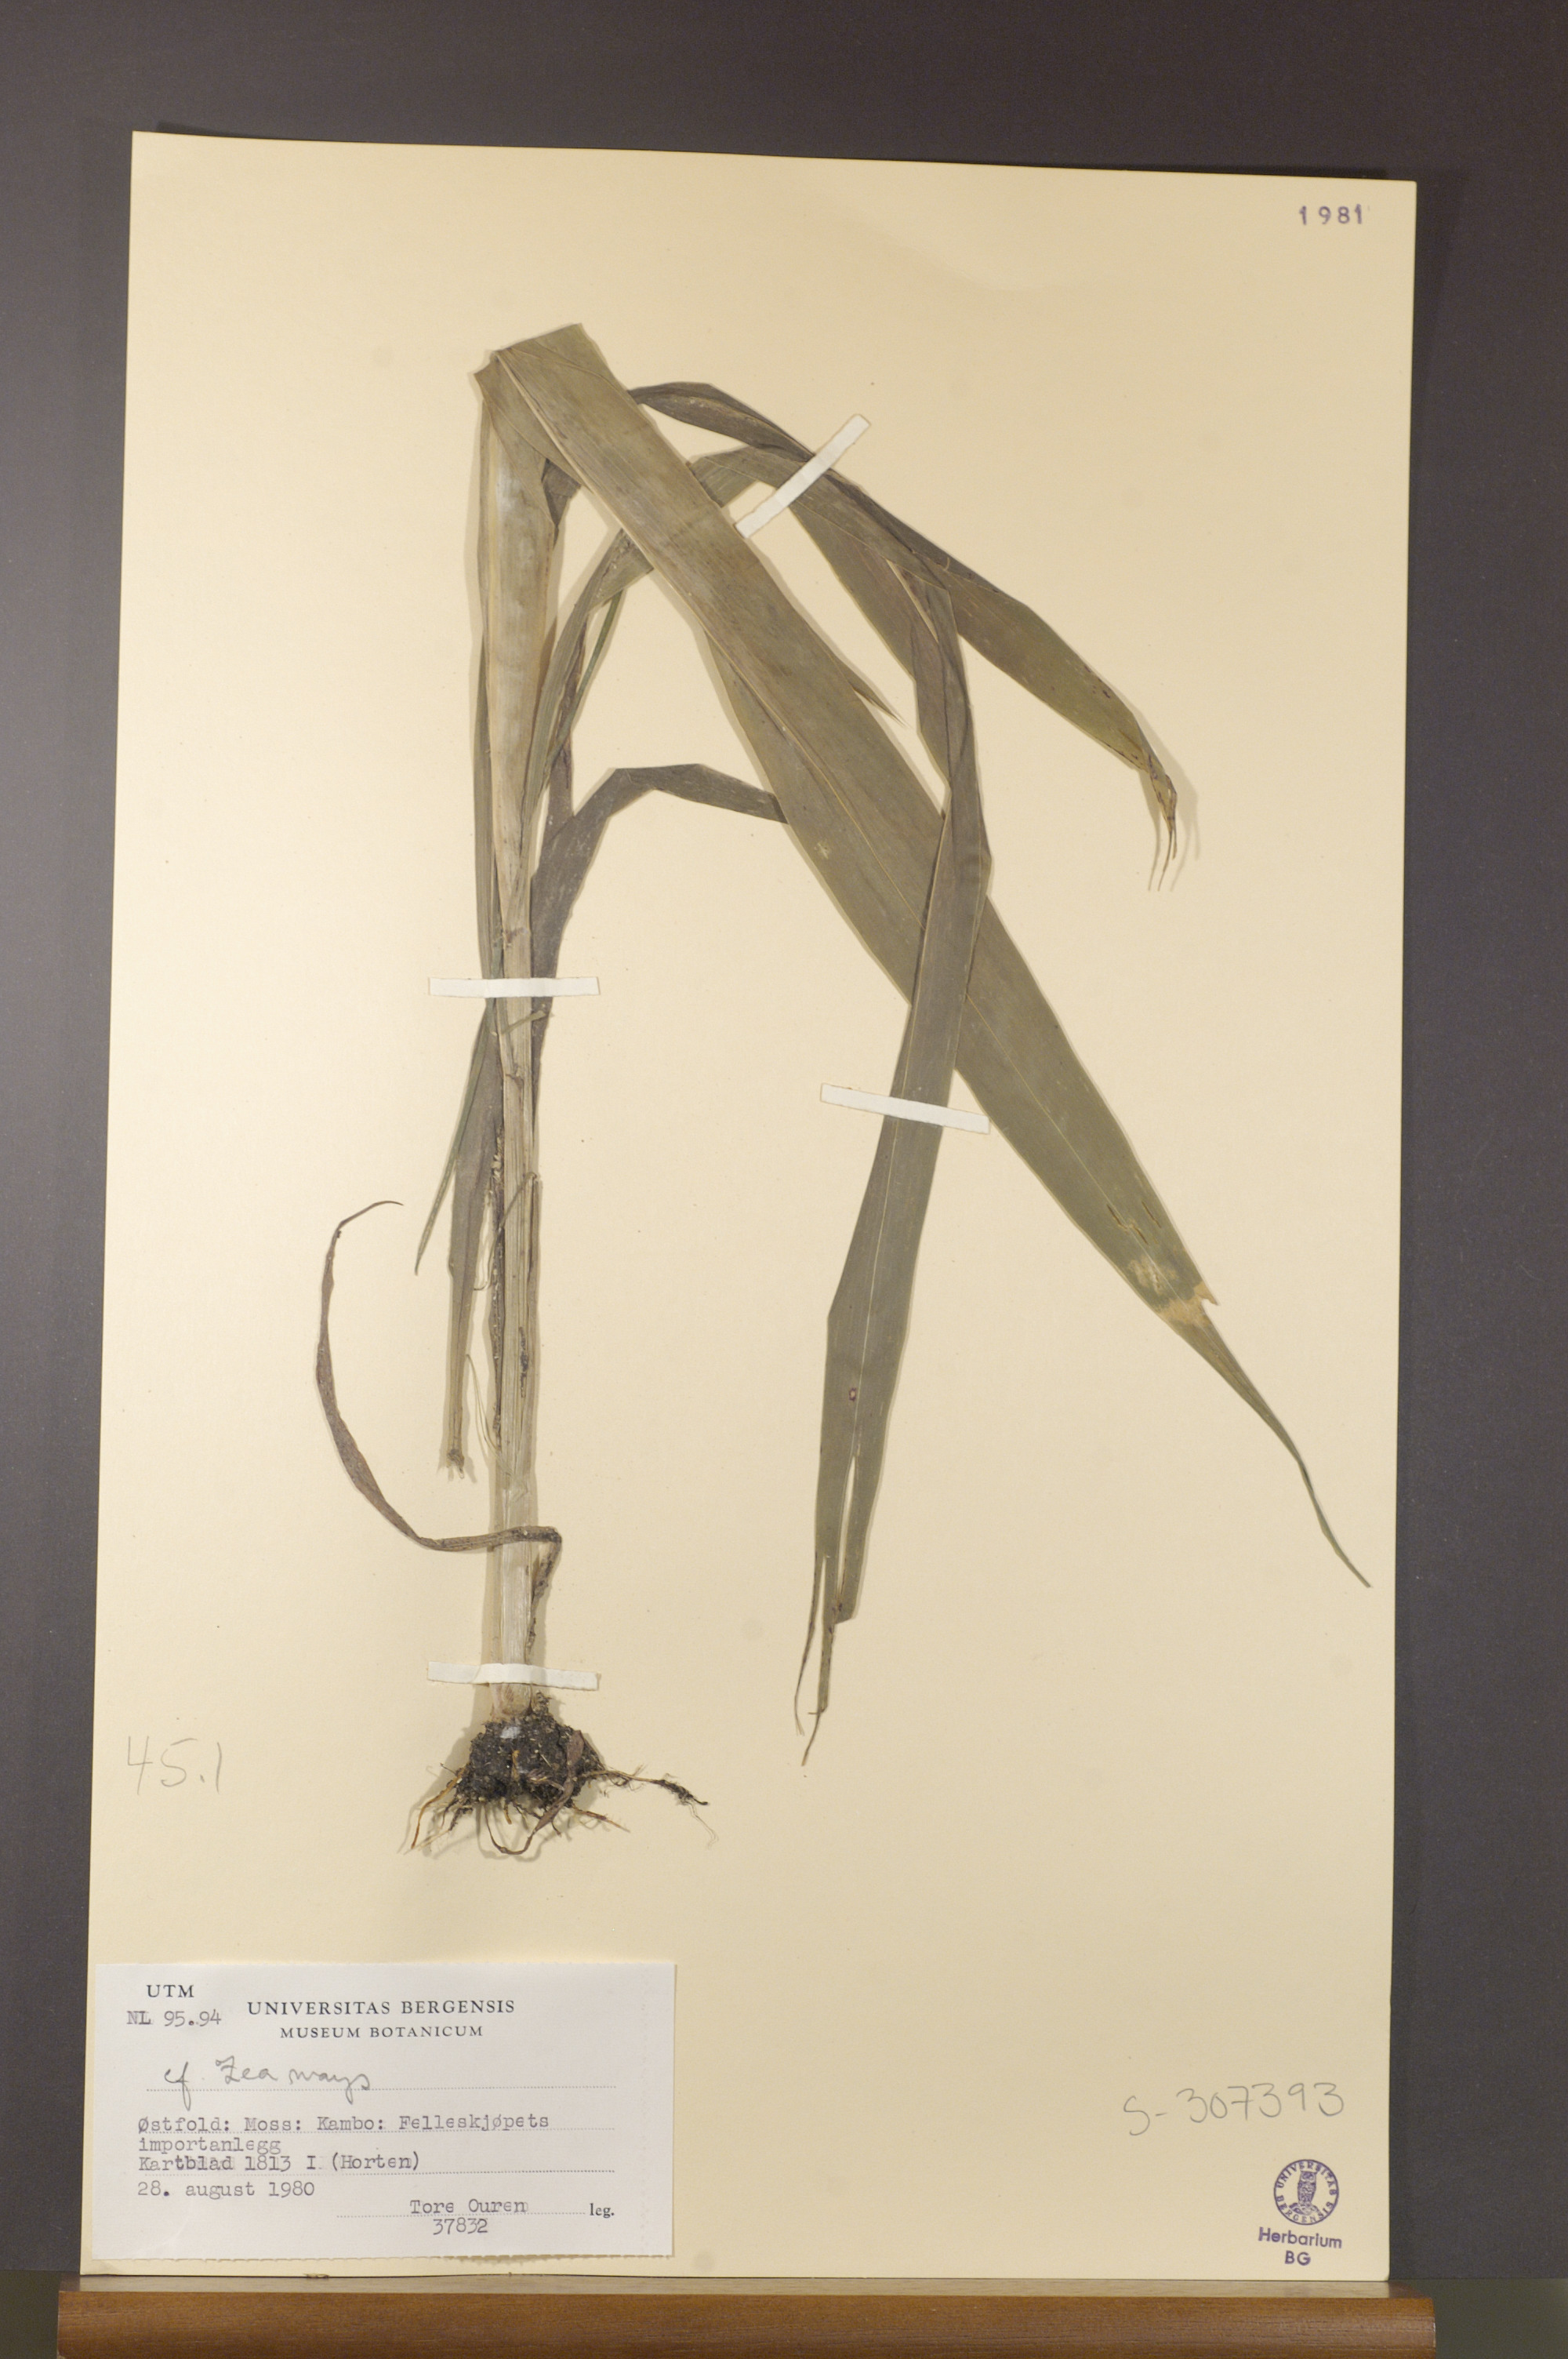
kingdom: Plantae
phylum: Tracheophyta
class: Liliopsida
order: Poales
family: Poaceae
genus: Zea
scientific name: Zea mays
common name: Maize
